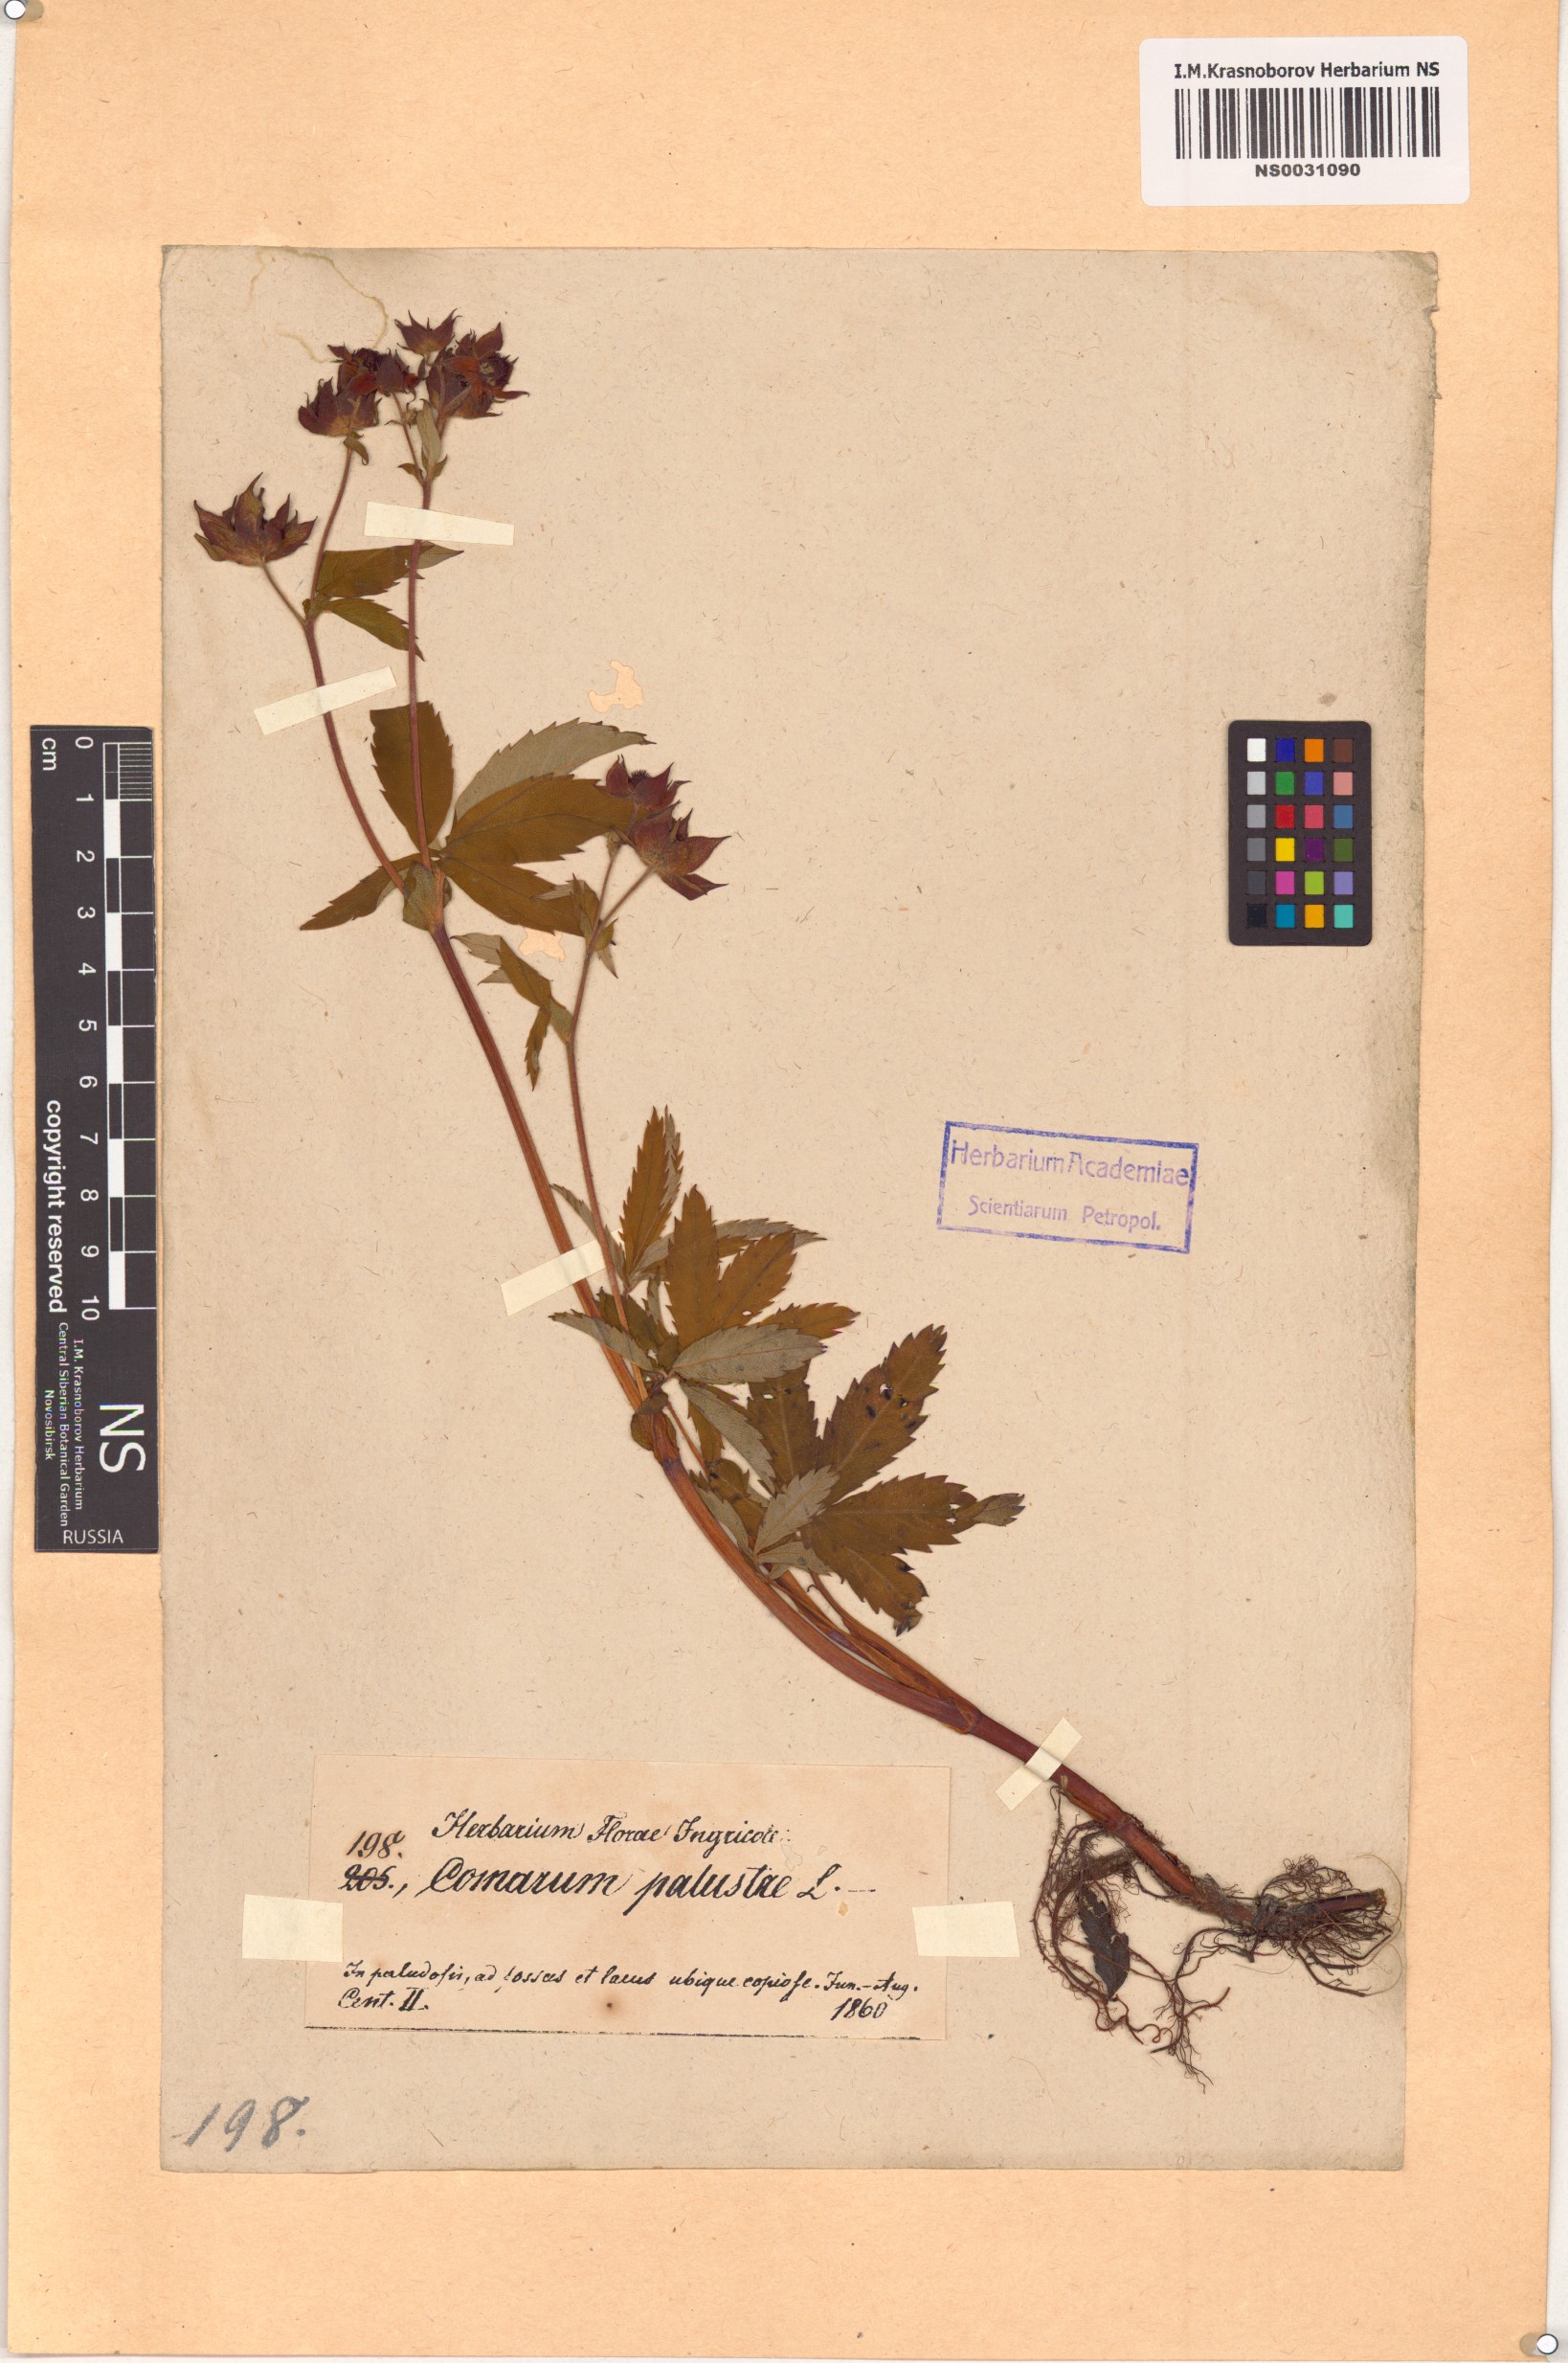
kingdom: Plantae
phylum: Tracheophyta
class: Magnoliopsida
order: Rosales
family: Rosaceae
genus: Comarum
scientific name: Comarum palustre
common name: Marsh cinquefoil
